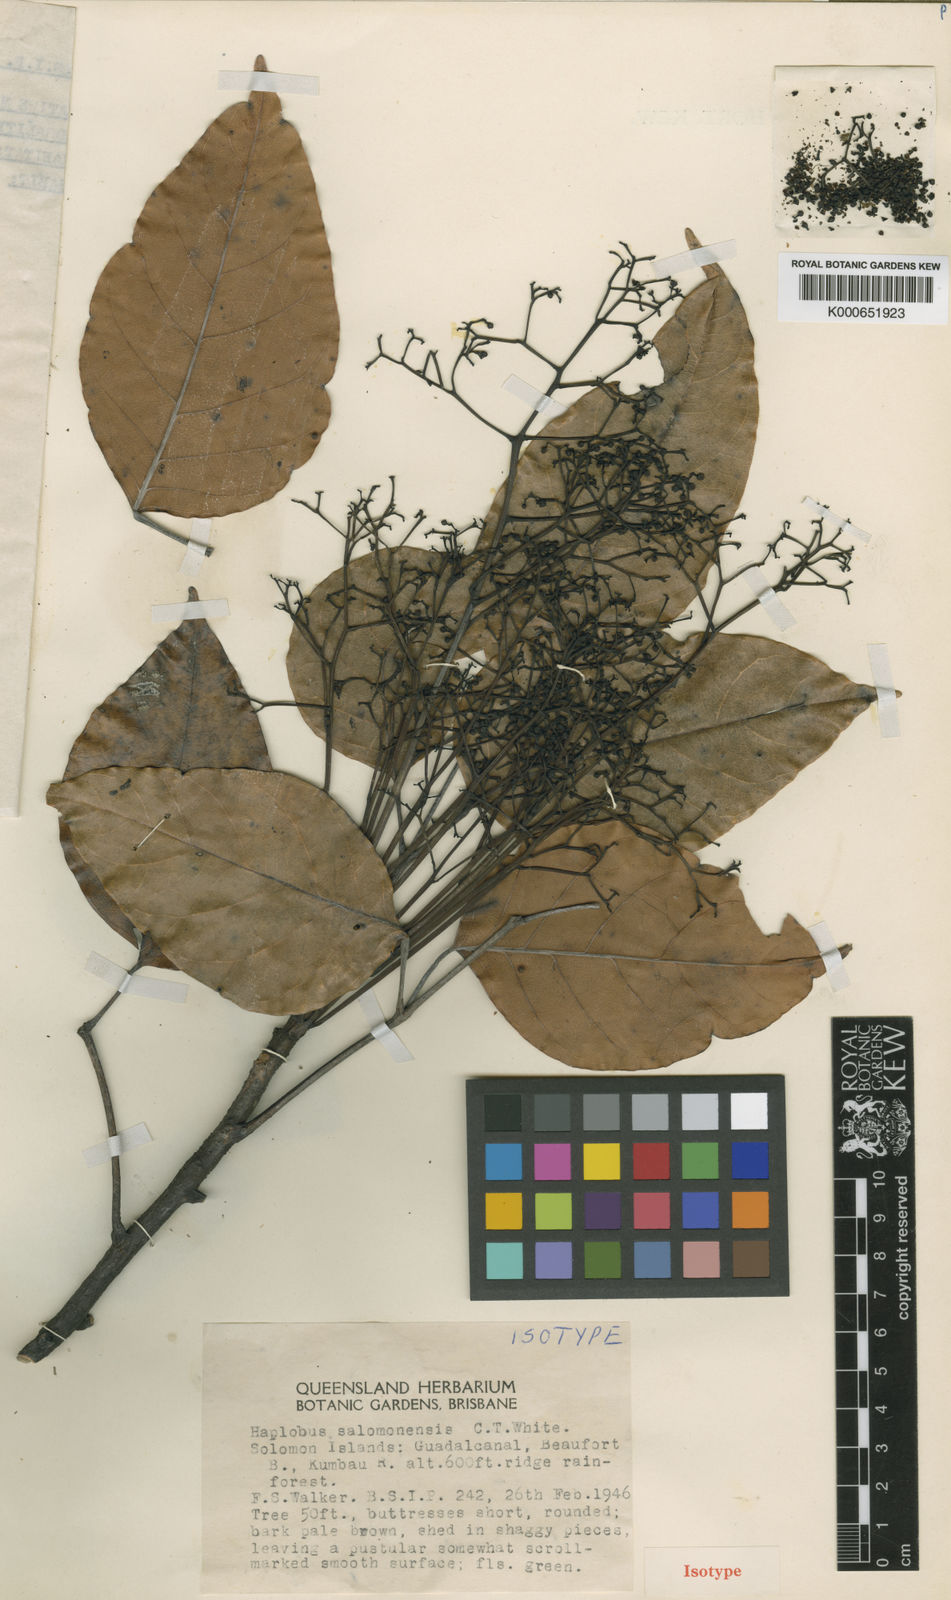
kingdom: Plantae
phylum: Tracheophyta
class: Magnoliopsida
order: Sapindales
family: Burseraceae
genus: Haplolobus
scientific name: Haplolobus floribundus
